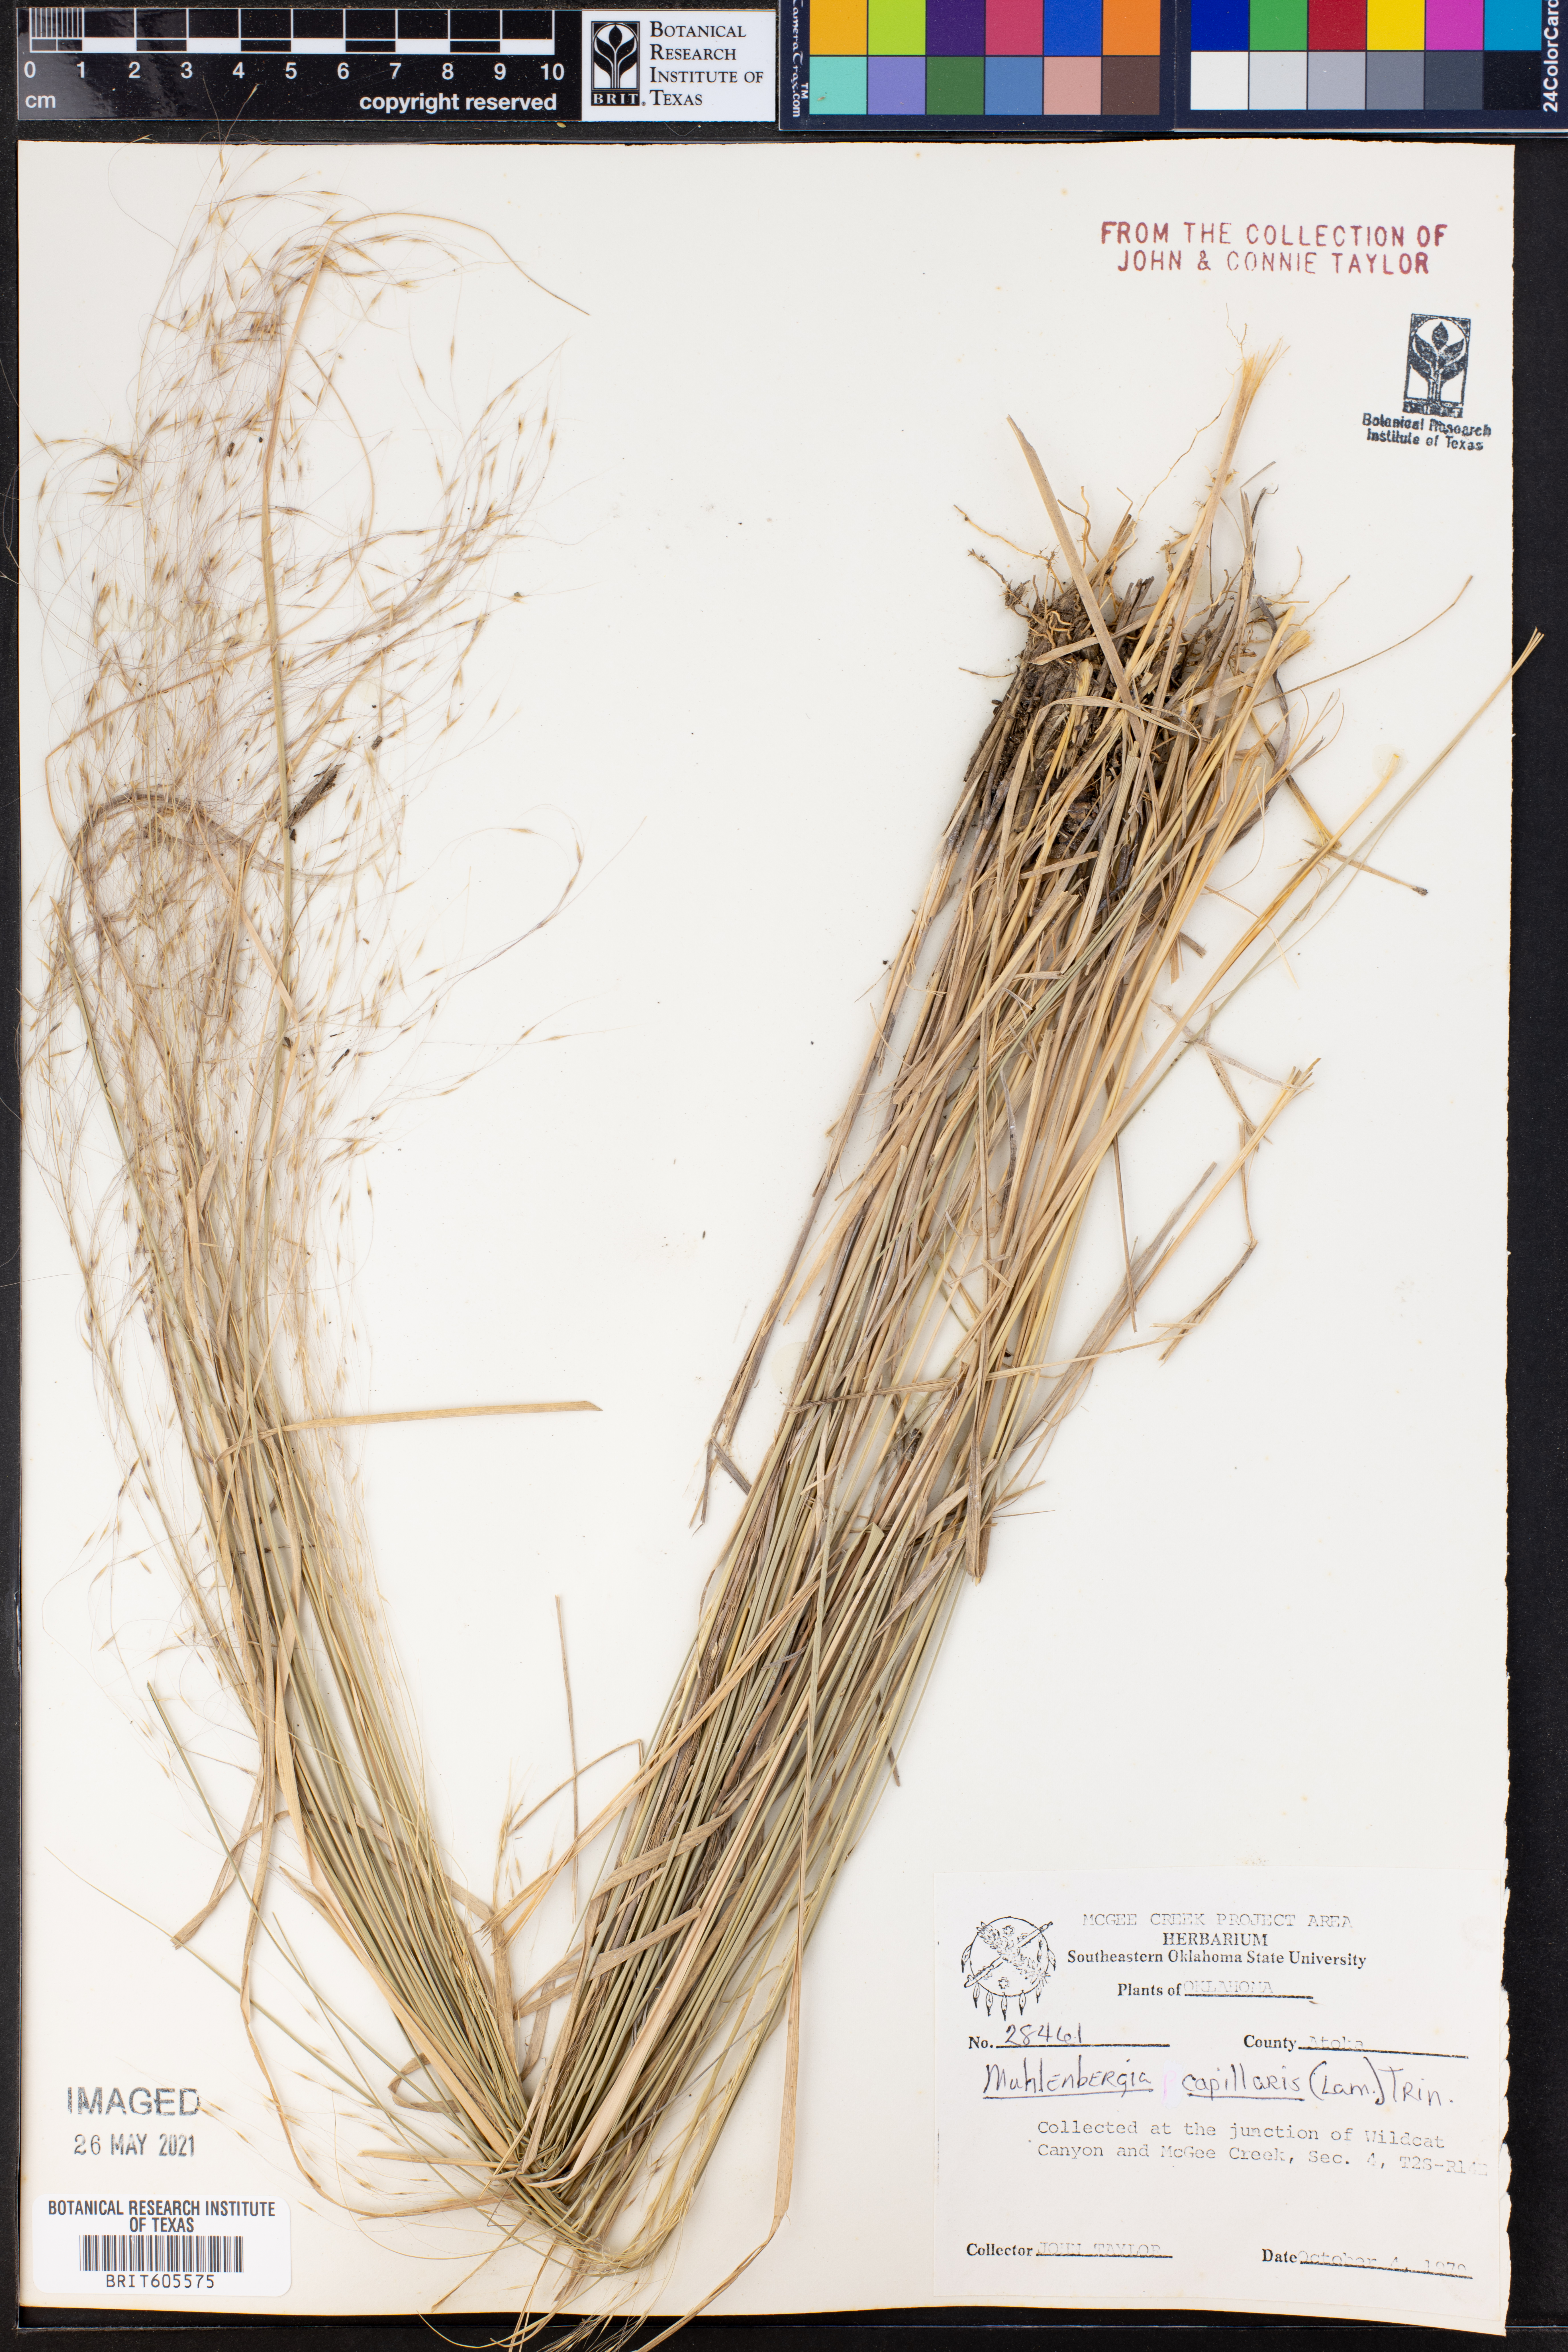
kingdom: Plantae
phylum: Tracheophyta
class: Liliopsida
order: Poales
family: Poaceae
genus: Muhlenbergia
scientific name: Muhlenbergia capillaris
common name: Purple grass
